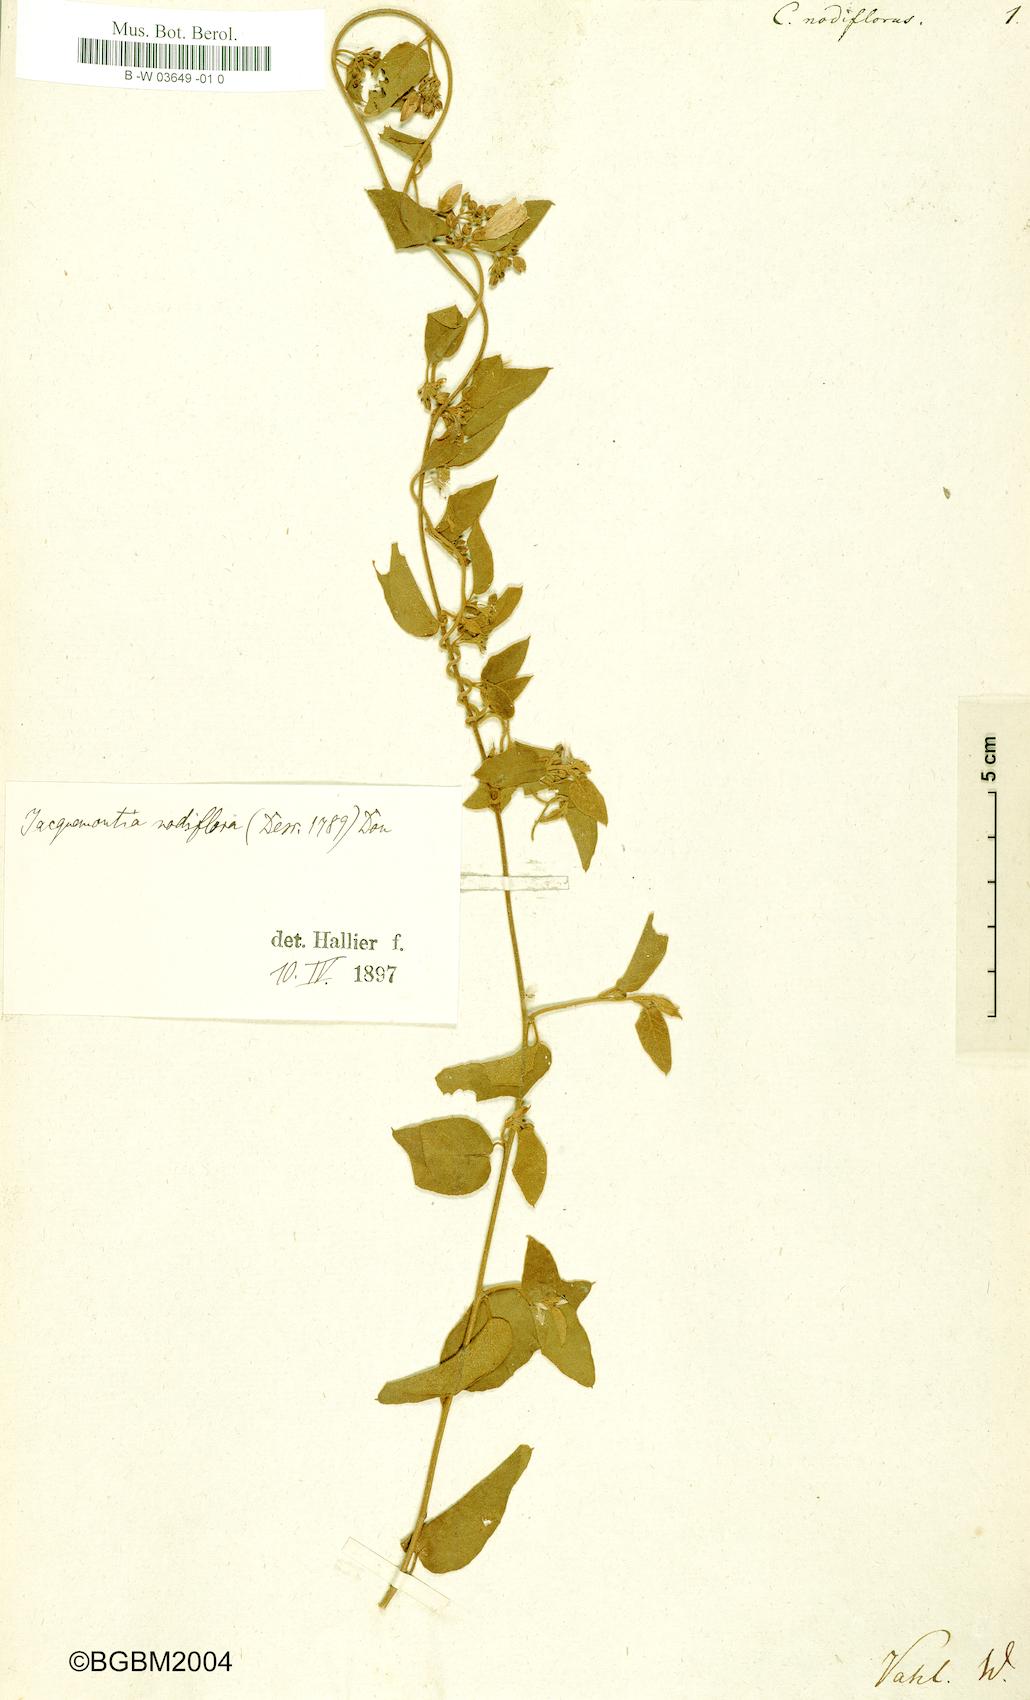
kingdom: Plantae
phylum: Tracheophyta
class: Magnoliopsida
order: Solanales
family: Convolvulaceae
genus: Convolvulus
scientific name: Convolvulus nodiflorus
